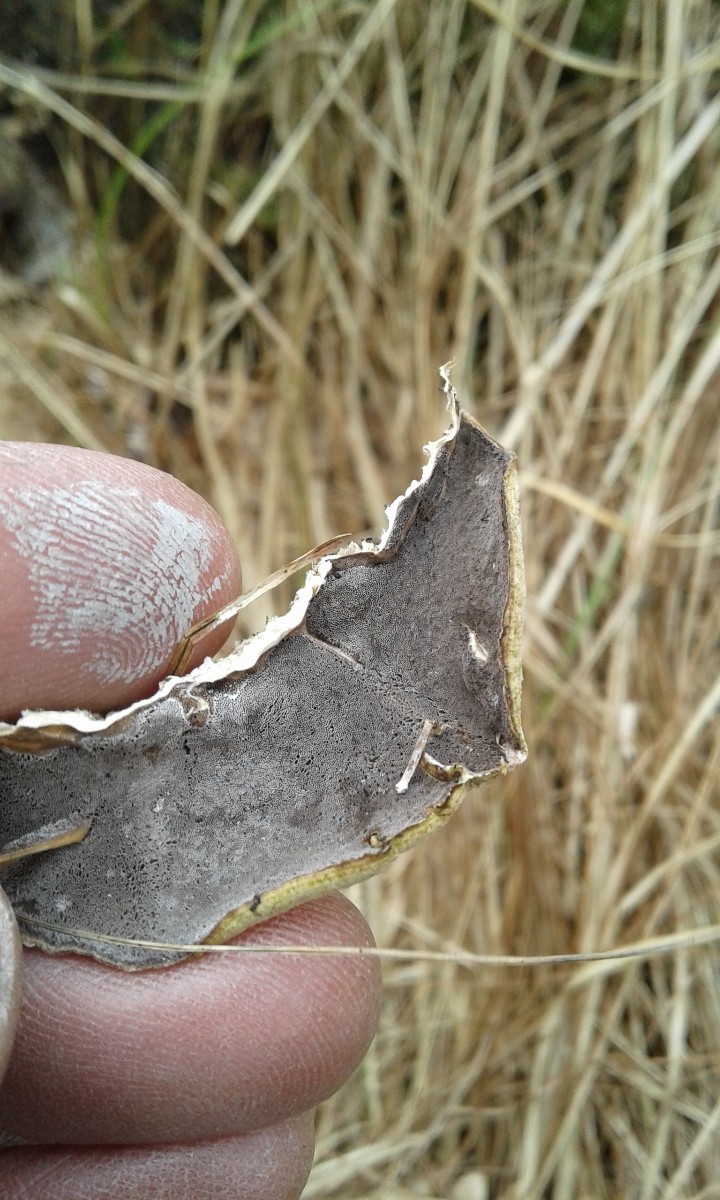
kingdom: Fungi
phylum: Basidiomycota
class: Agaricomycetes
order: Polyporales
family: Phanerochaetaceae
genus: Bjerkandera
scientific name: Bjerkandera adusta
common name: sveden sodporesvamp
